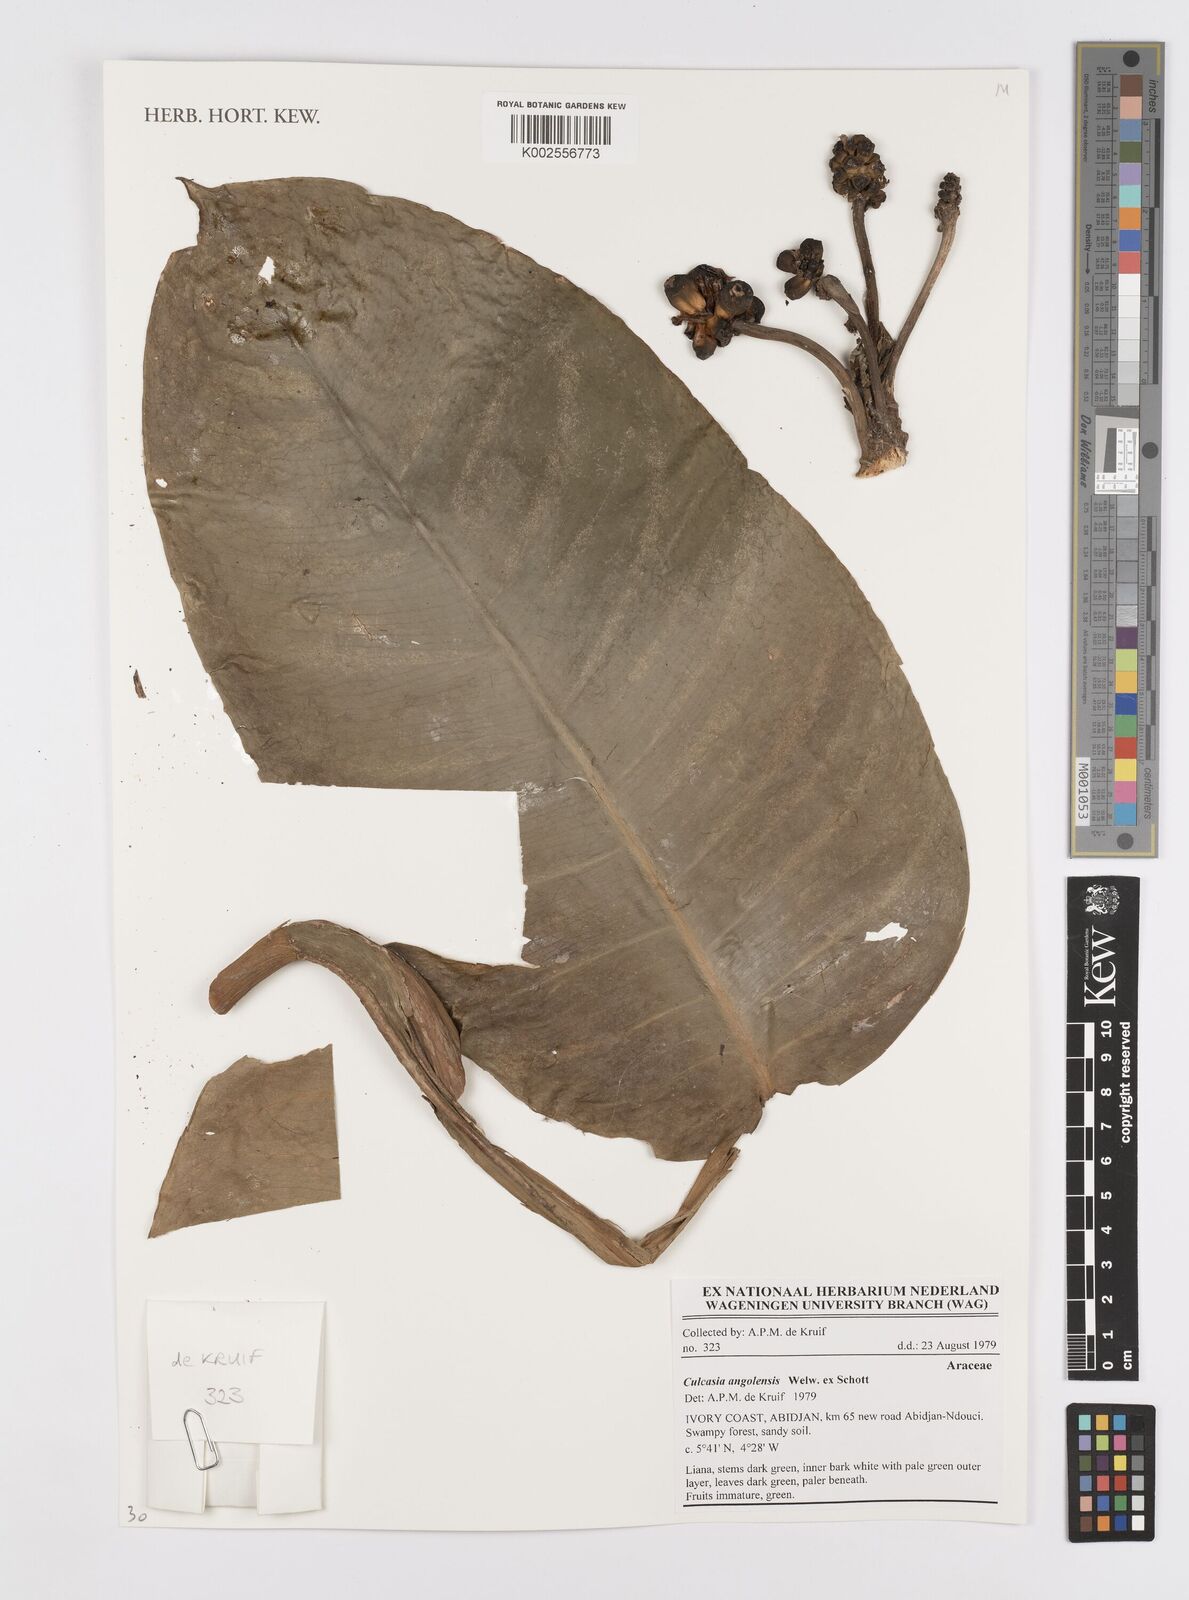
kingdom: Plantae
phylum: Tracheophyta
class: Liliopsida
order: Alismatales
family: Araceae
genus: Culcasia
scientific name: Culcasia angolensis
